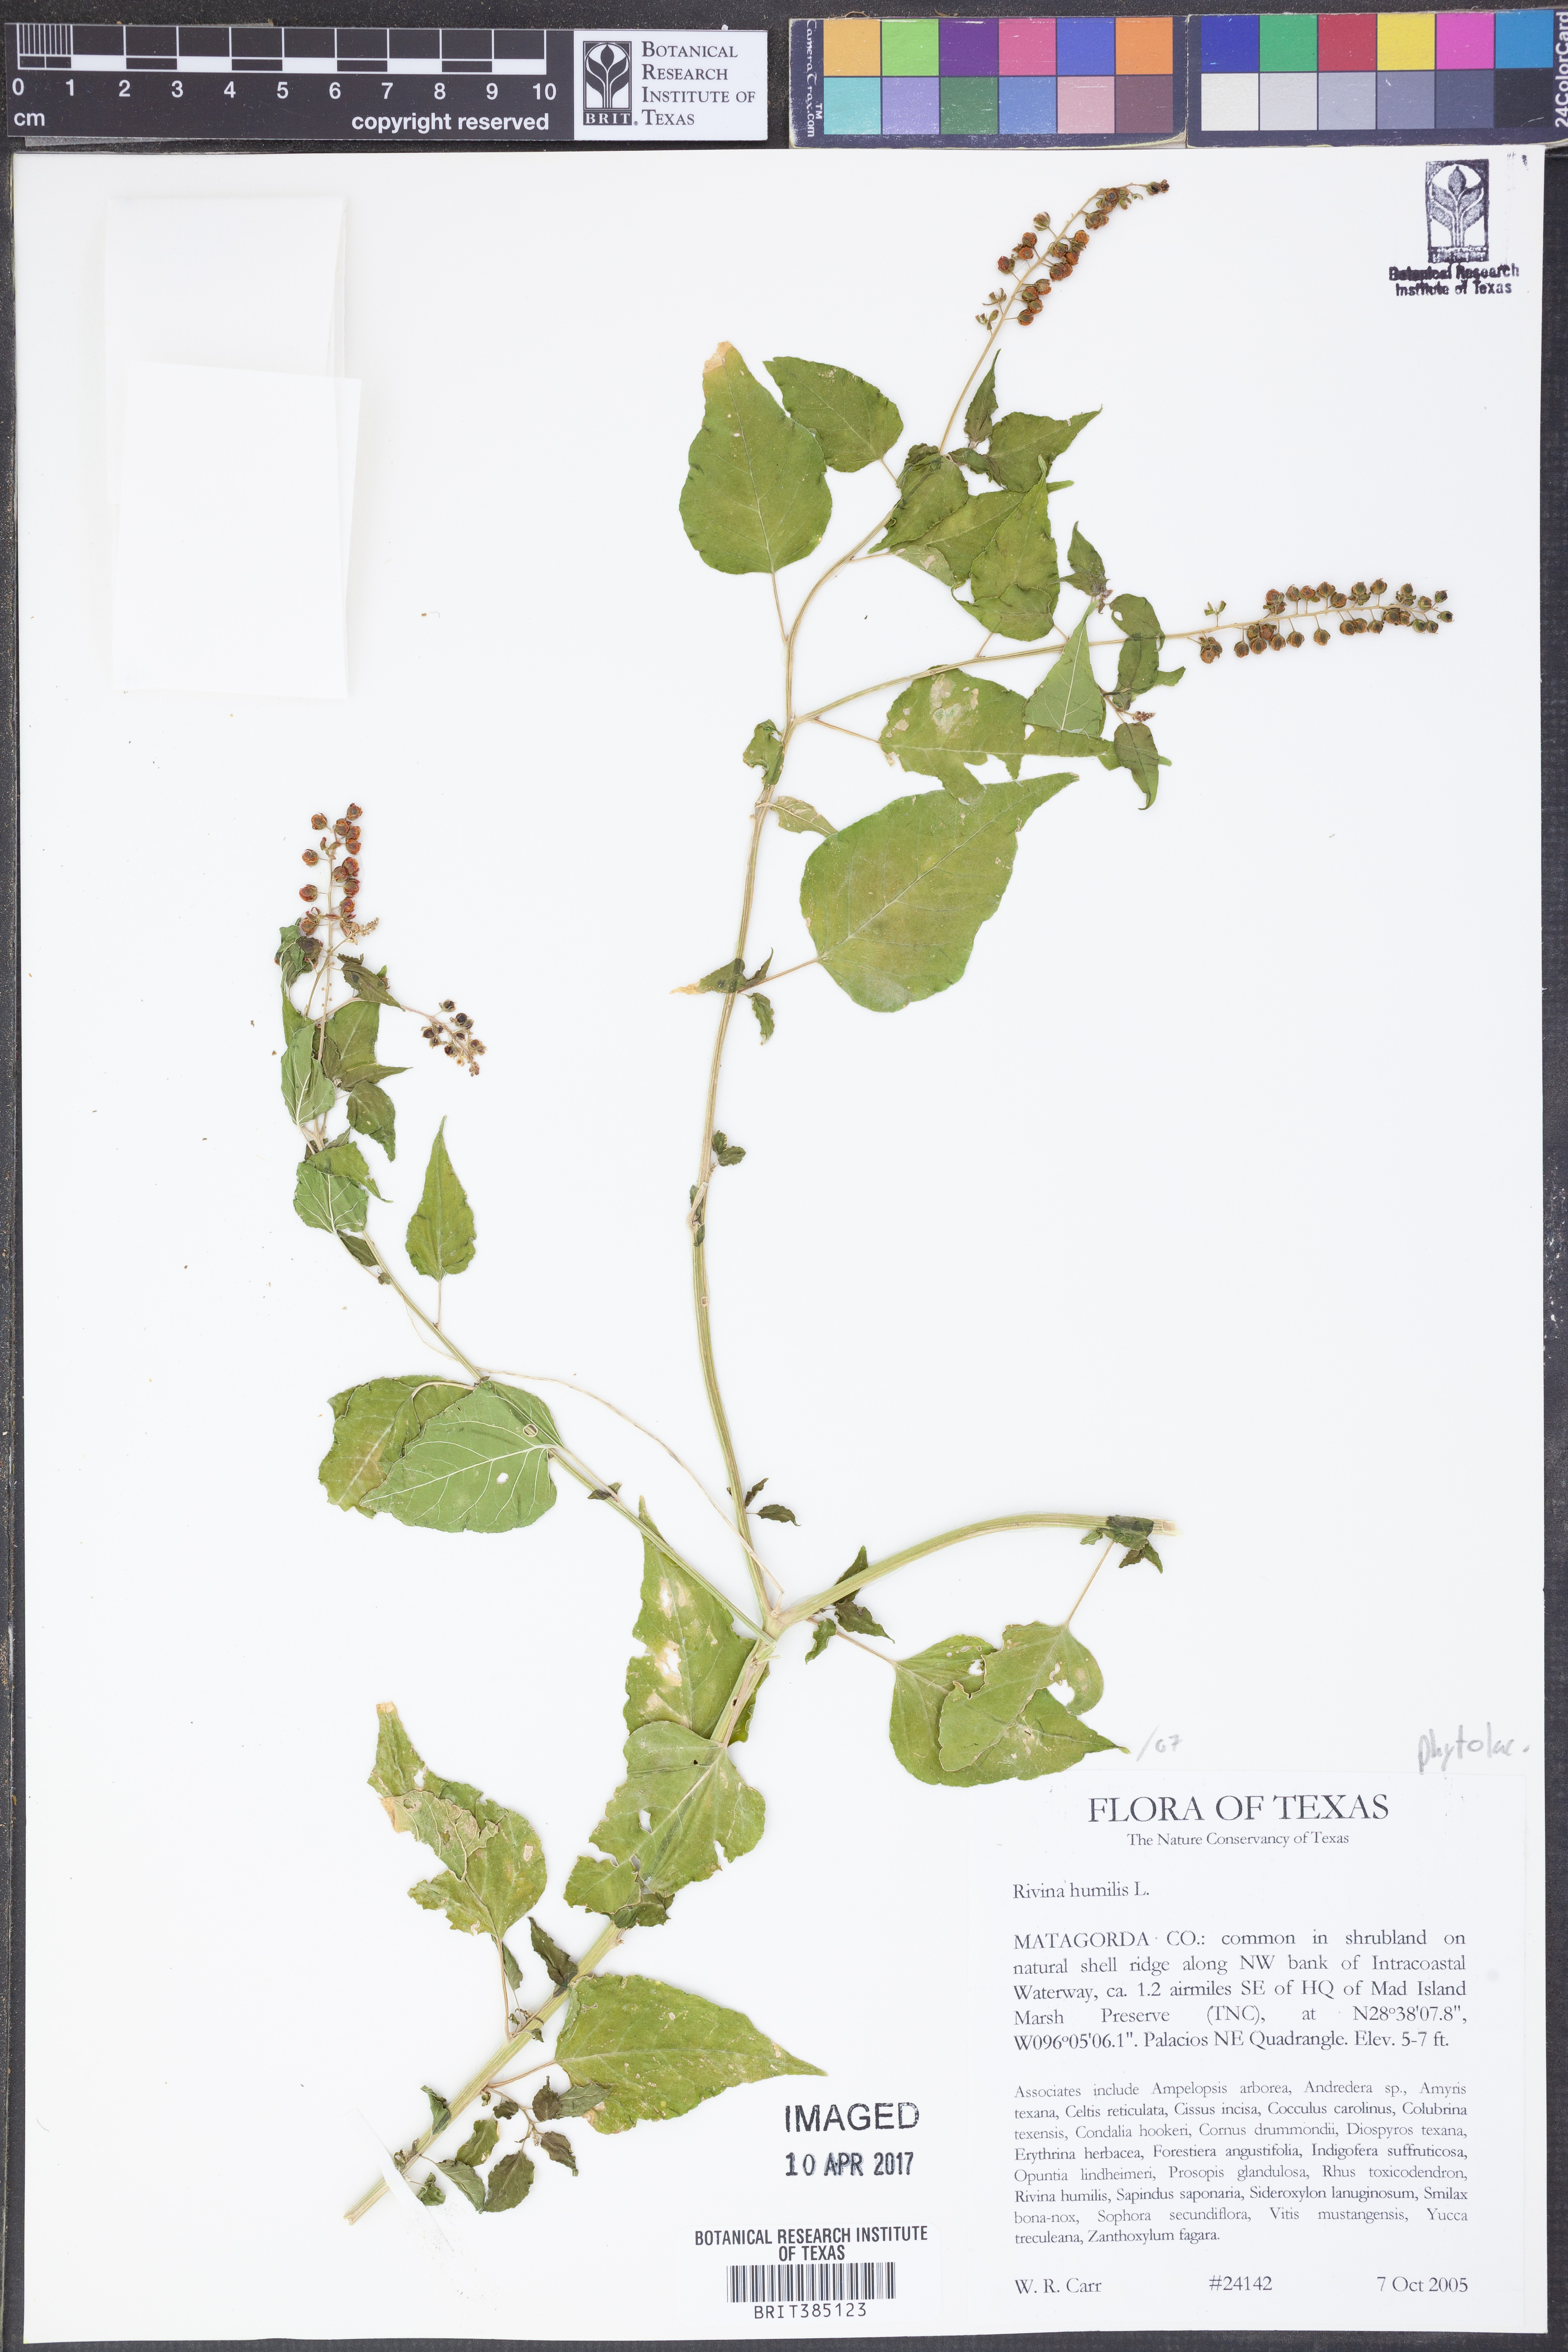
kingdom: Plantae
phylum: Tracheophyta
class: Magnoliopsida
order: Caryophyllales
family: Phytolaccaceae
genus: Rivina
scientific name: Rivina humilis
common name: Rougeplant
